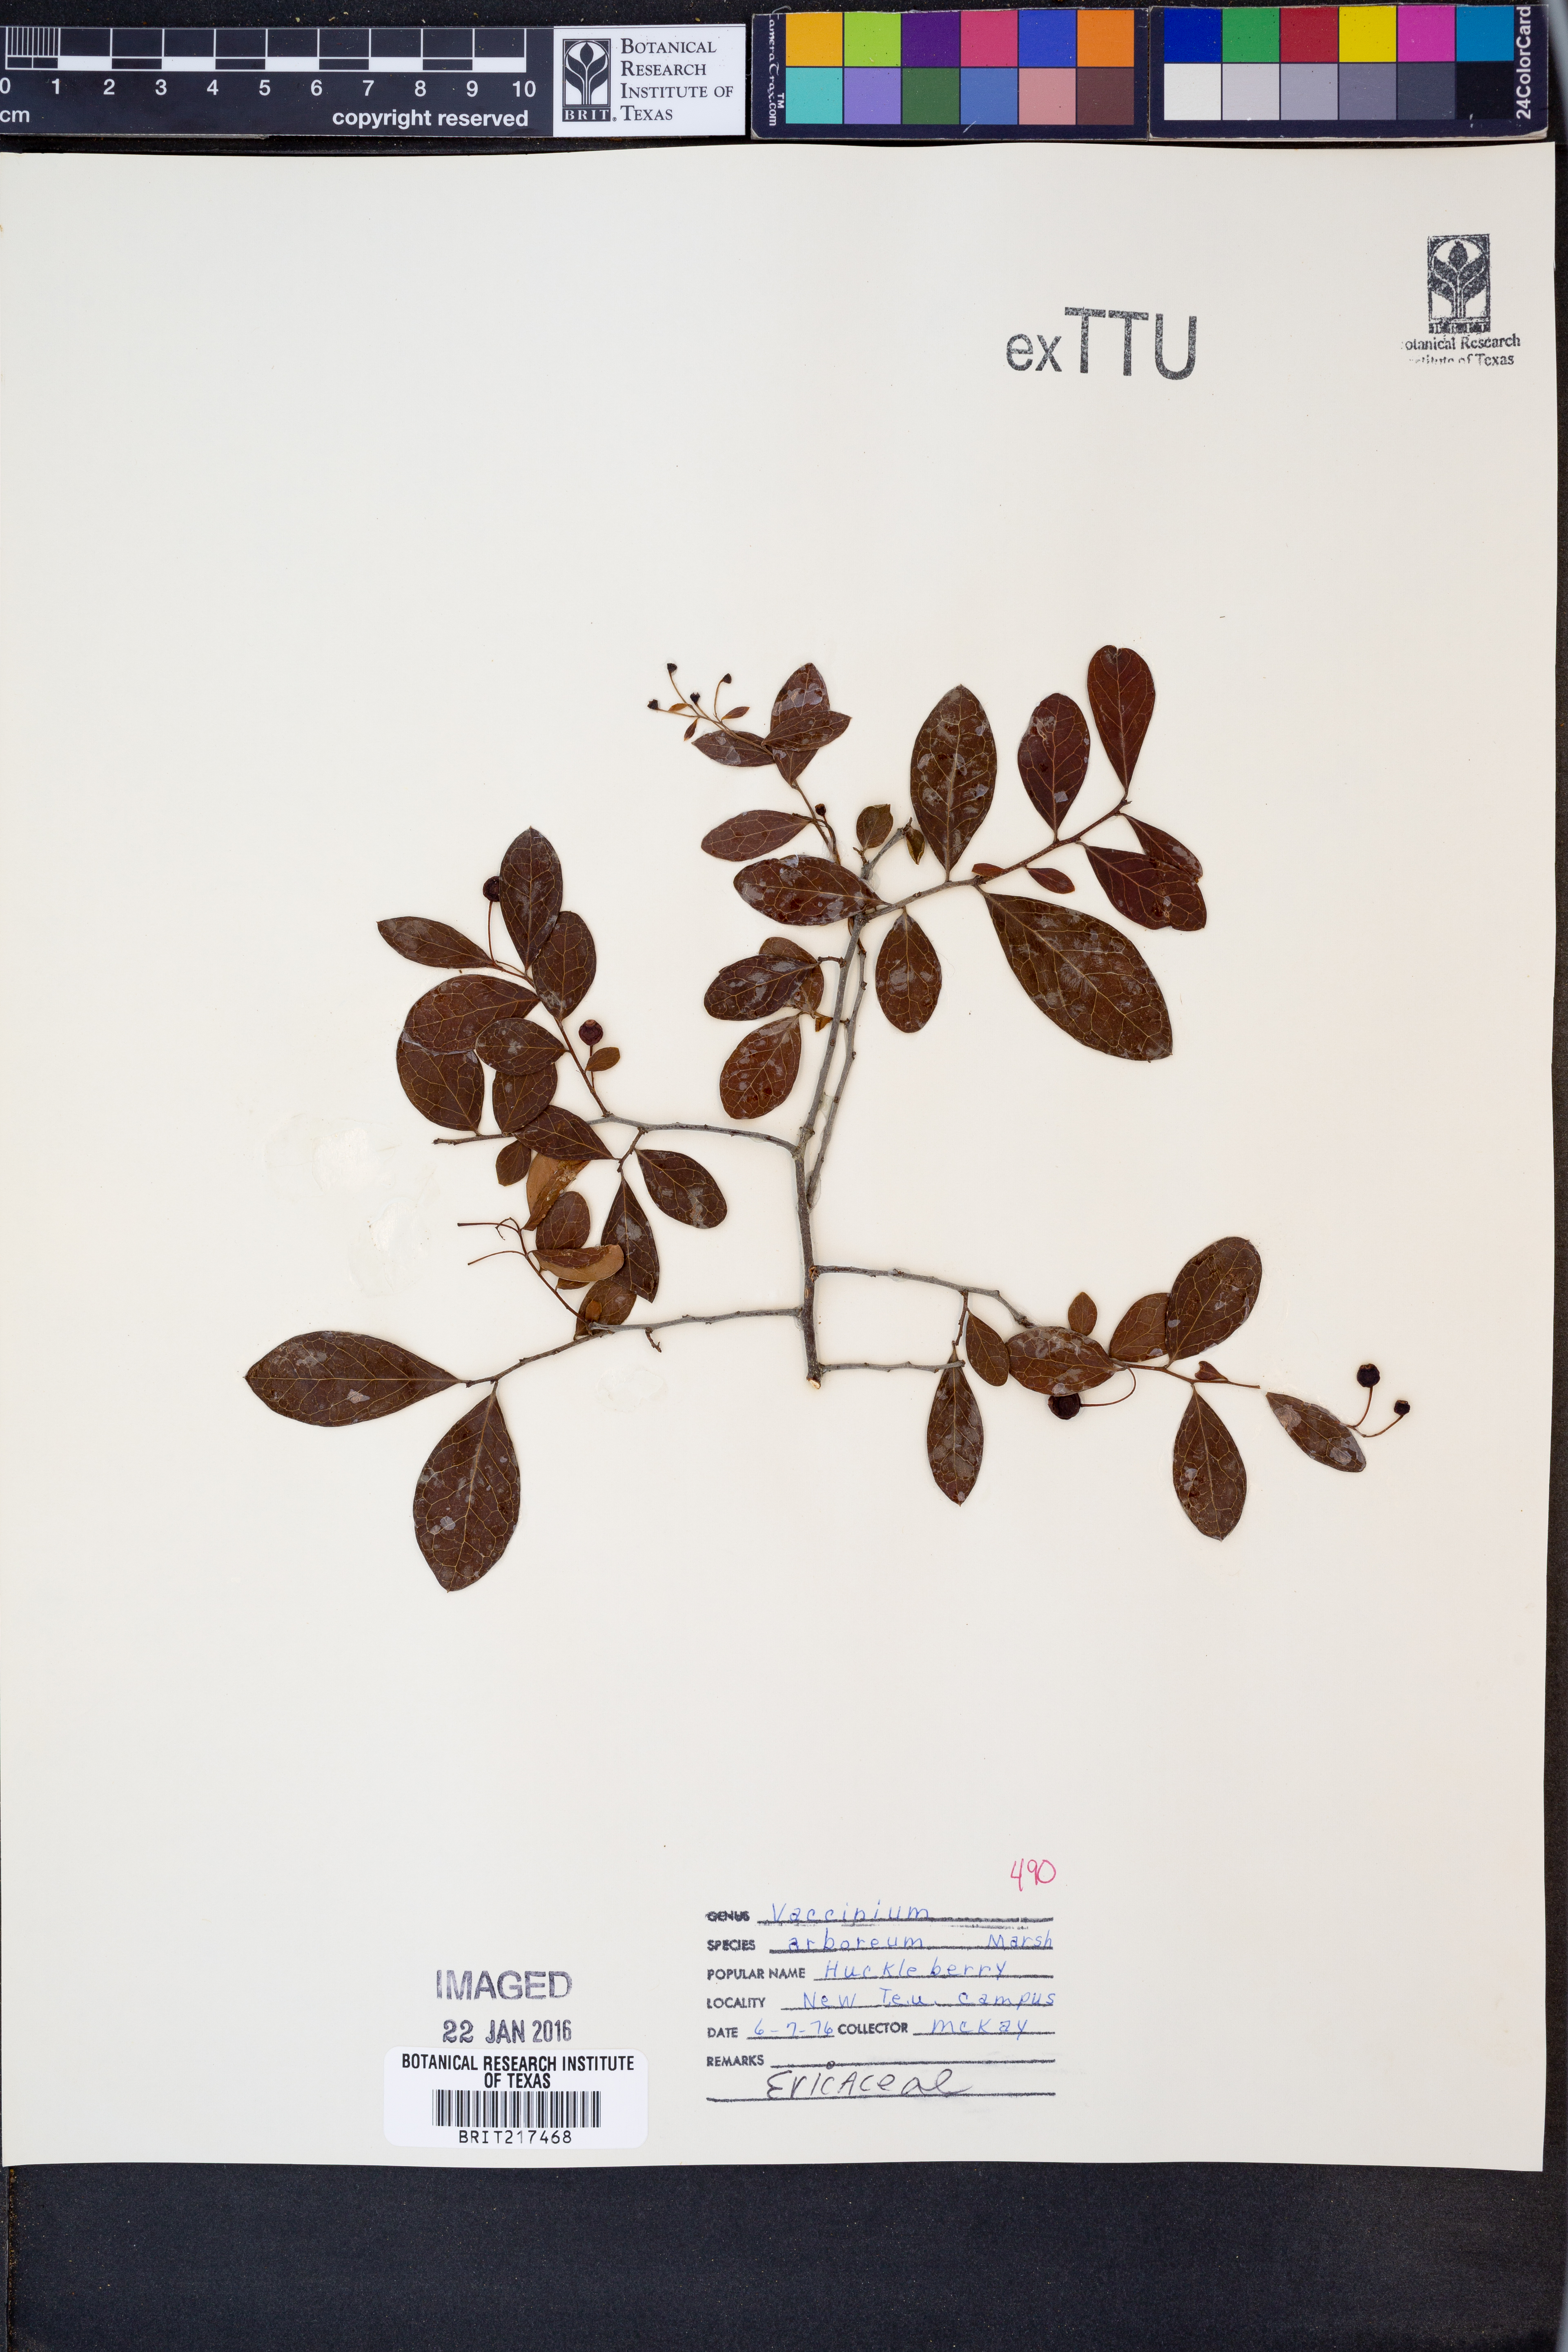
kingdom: Plantae
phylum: Tracheophyta
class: Magnoliopsida
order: Ericales
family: Ericaceae
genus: Vaccinium
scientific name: Vaccinium arboreum
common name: Farkleberry
